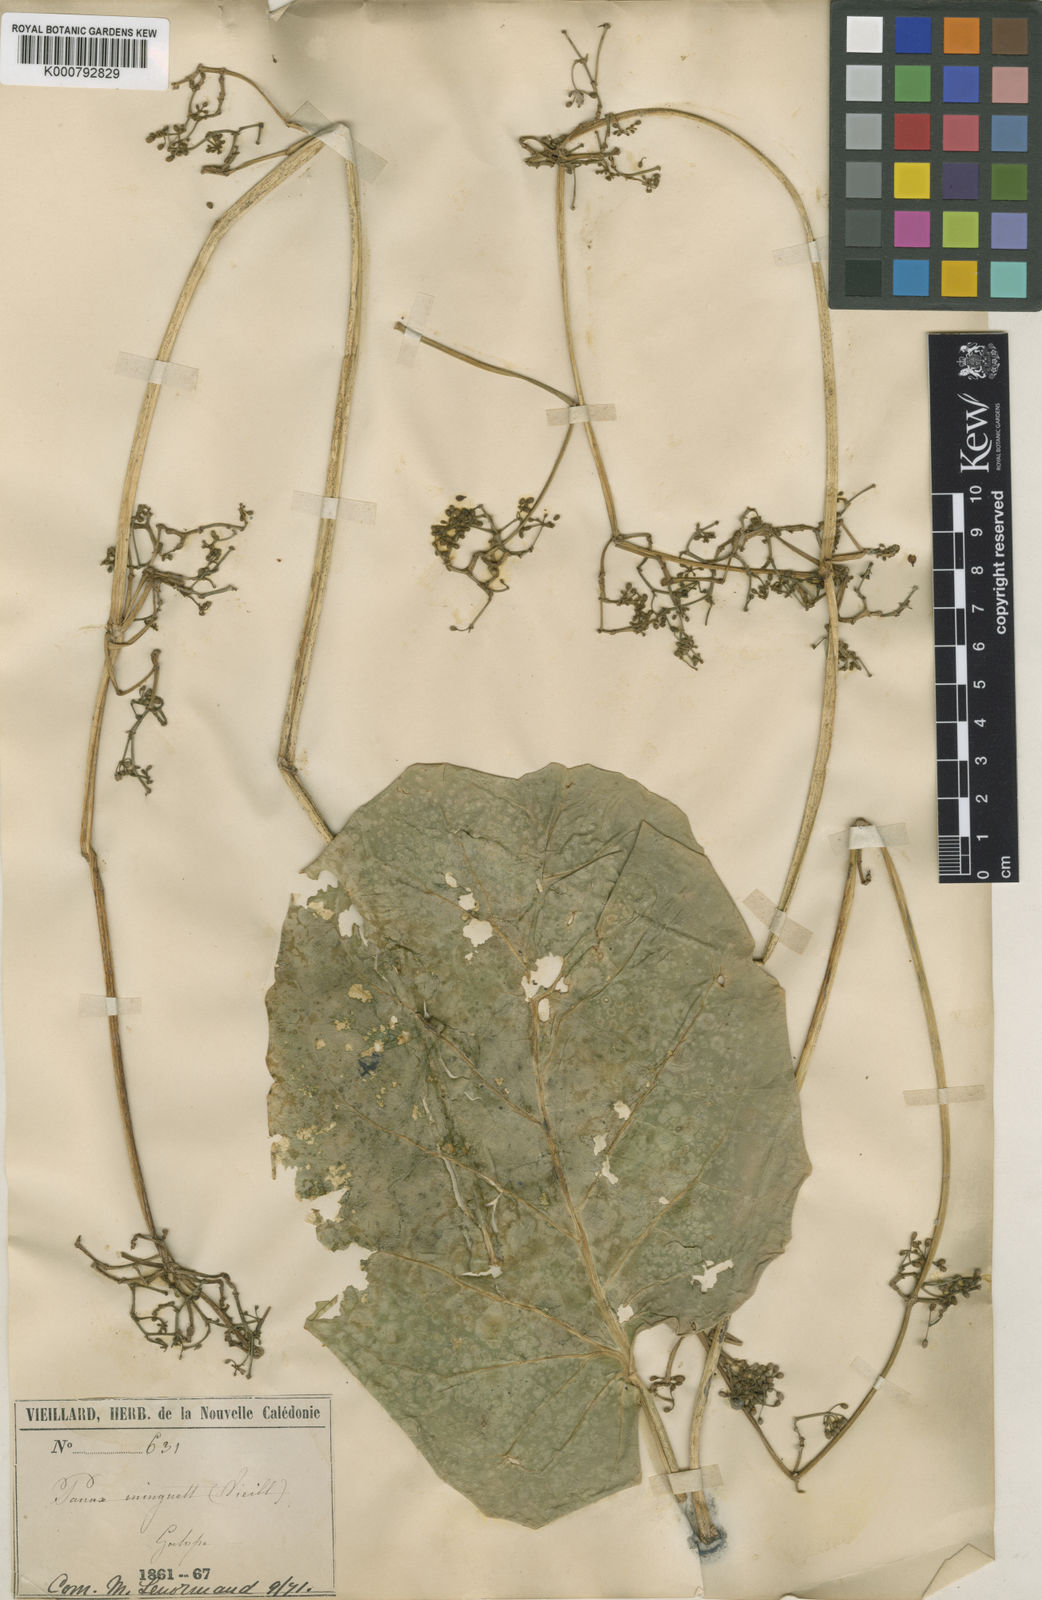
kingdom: Plantae
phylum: Tracheophyta
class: Magnoliopsida
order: Apiales
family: Araliaceae
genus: Polyscias
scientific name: Polyscias
